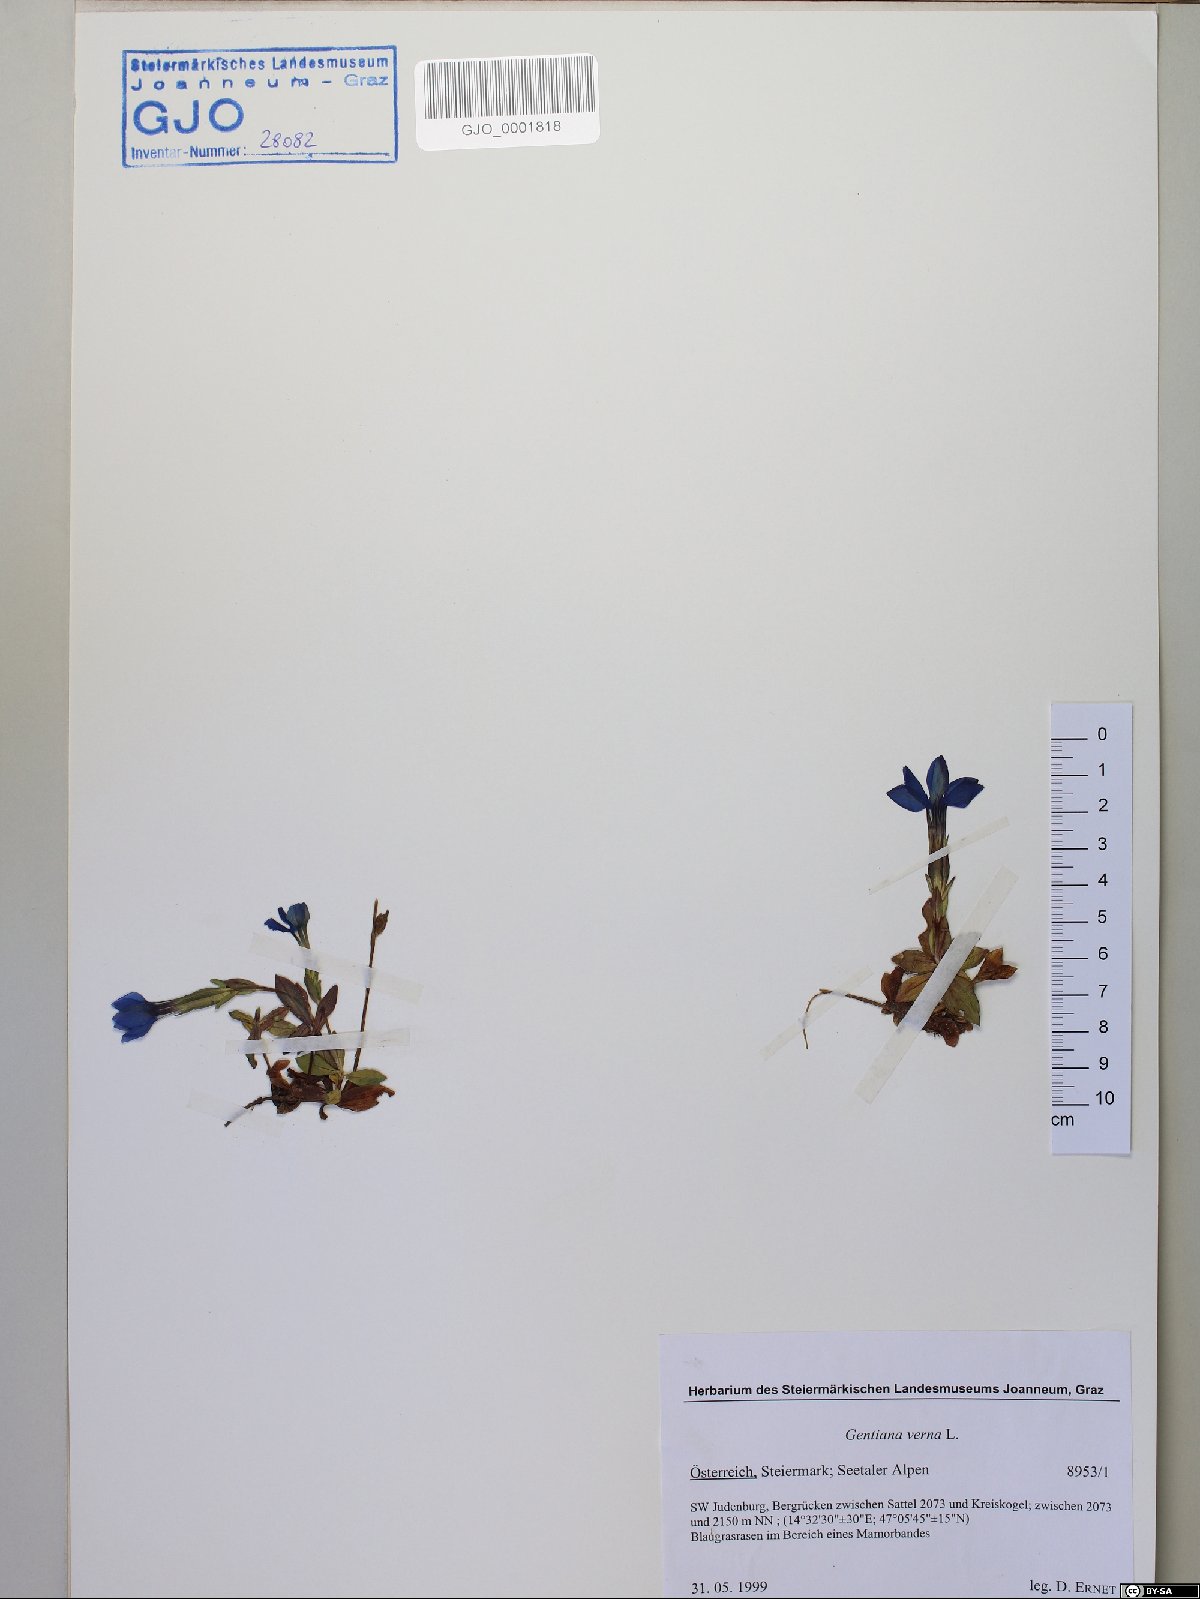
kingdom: Plantae
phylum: Tracheophyta
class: Magnoliopsida
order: Gentianales
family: Gentianaceae
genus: Gentiana
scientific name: Gentiana verna
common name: Spring gentian
